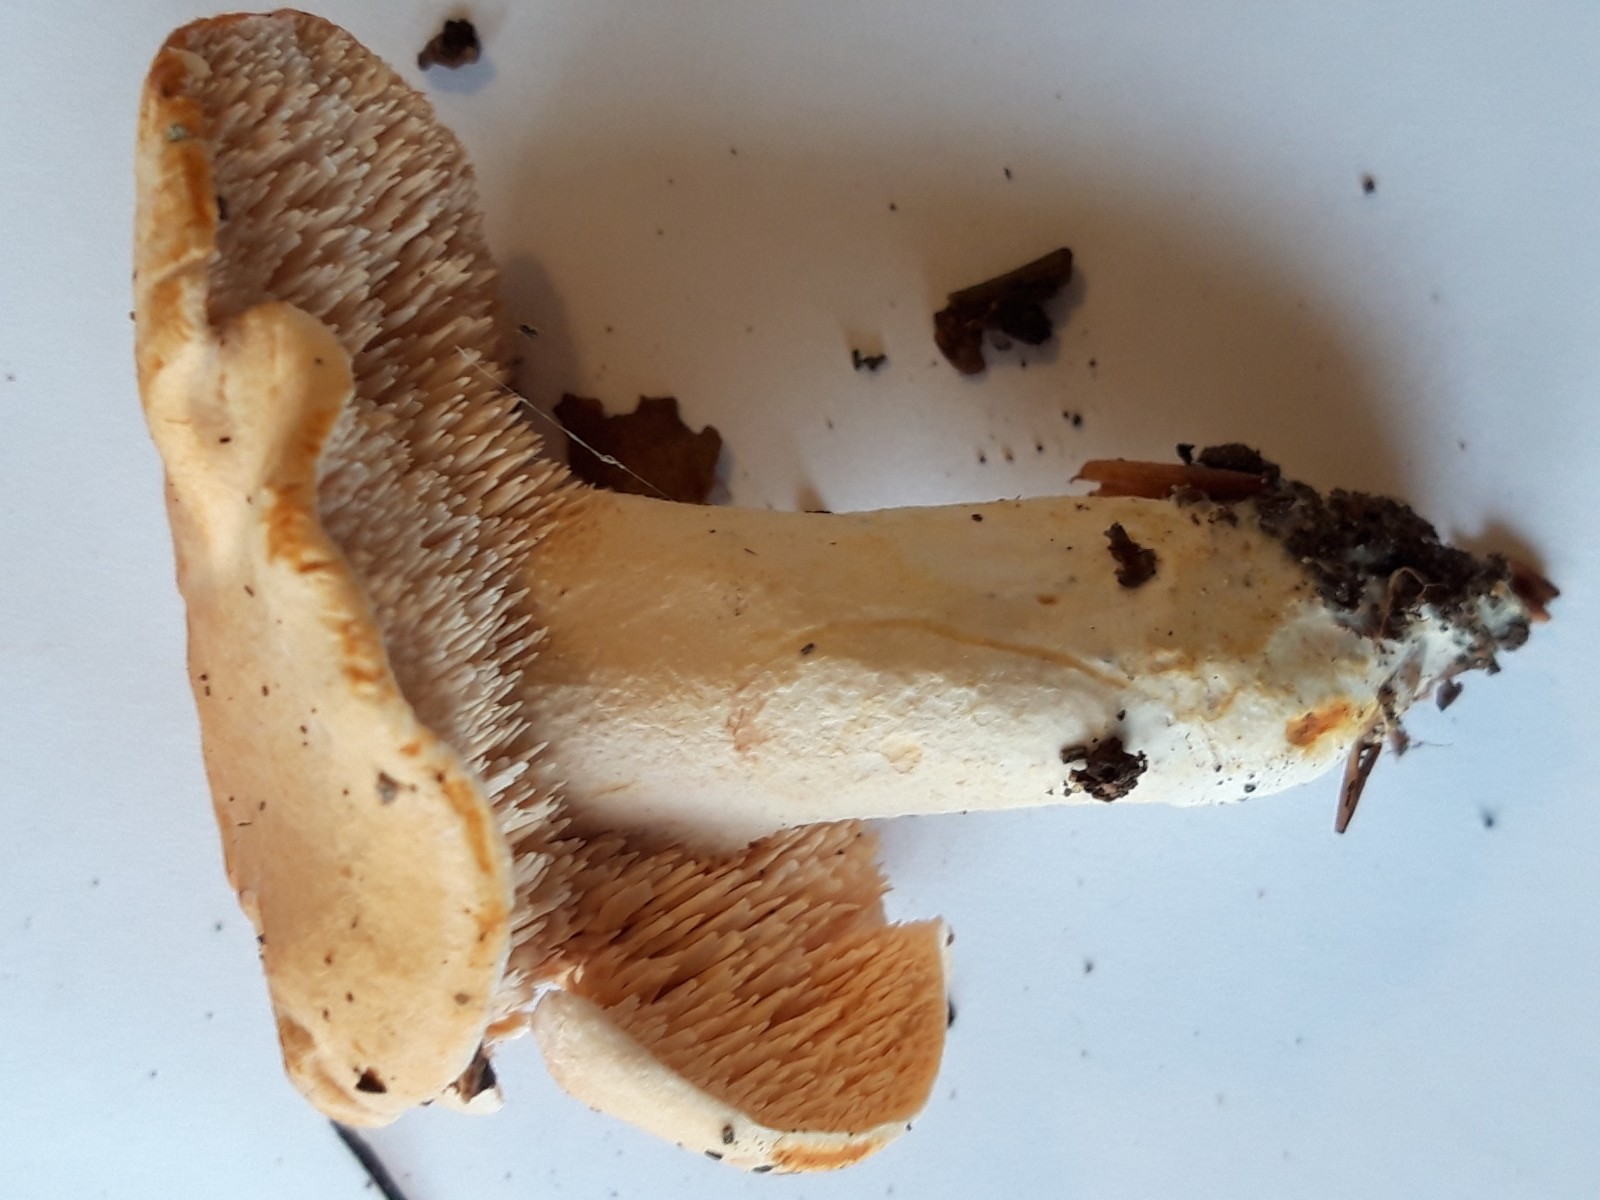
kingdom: Fungi
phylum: Basidiomycota
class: Agaricomycetes
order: Cantharellales
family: Hydnaceae
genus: Hydnum
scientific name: Hydnum
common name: pigsvamp
